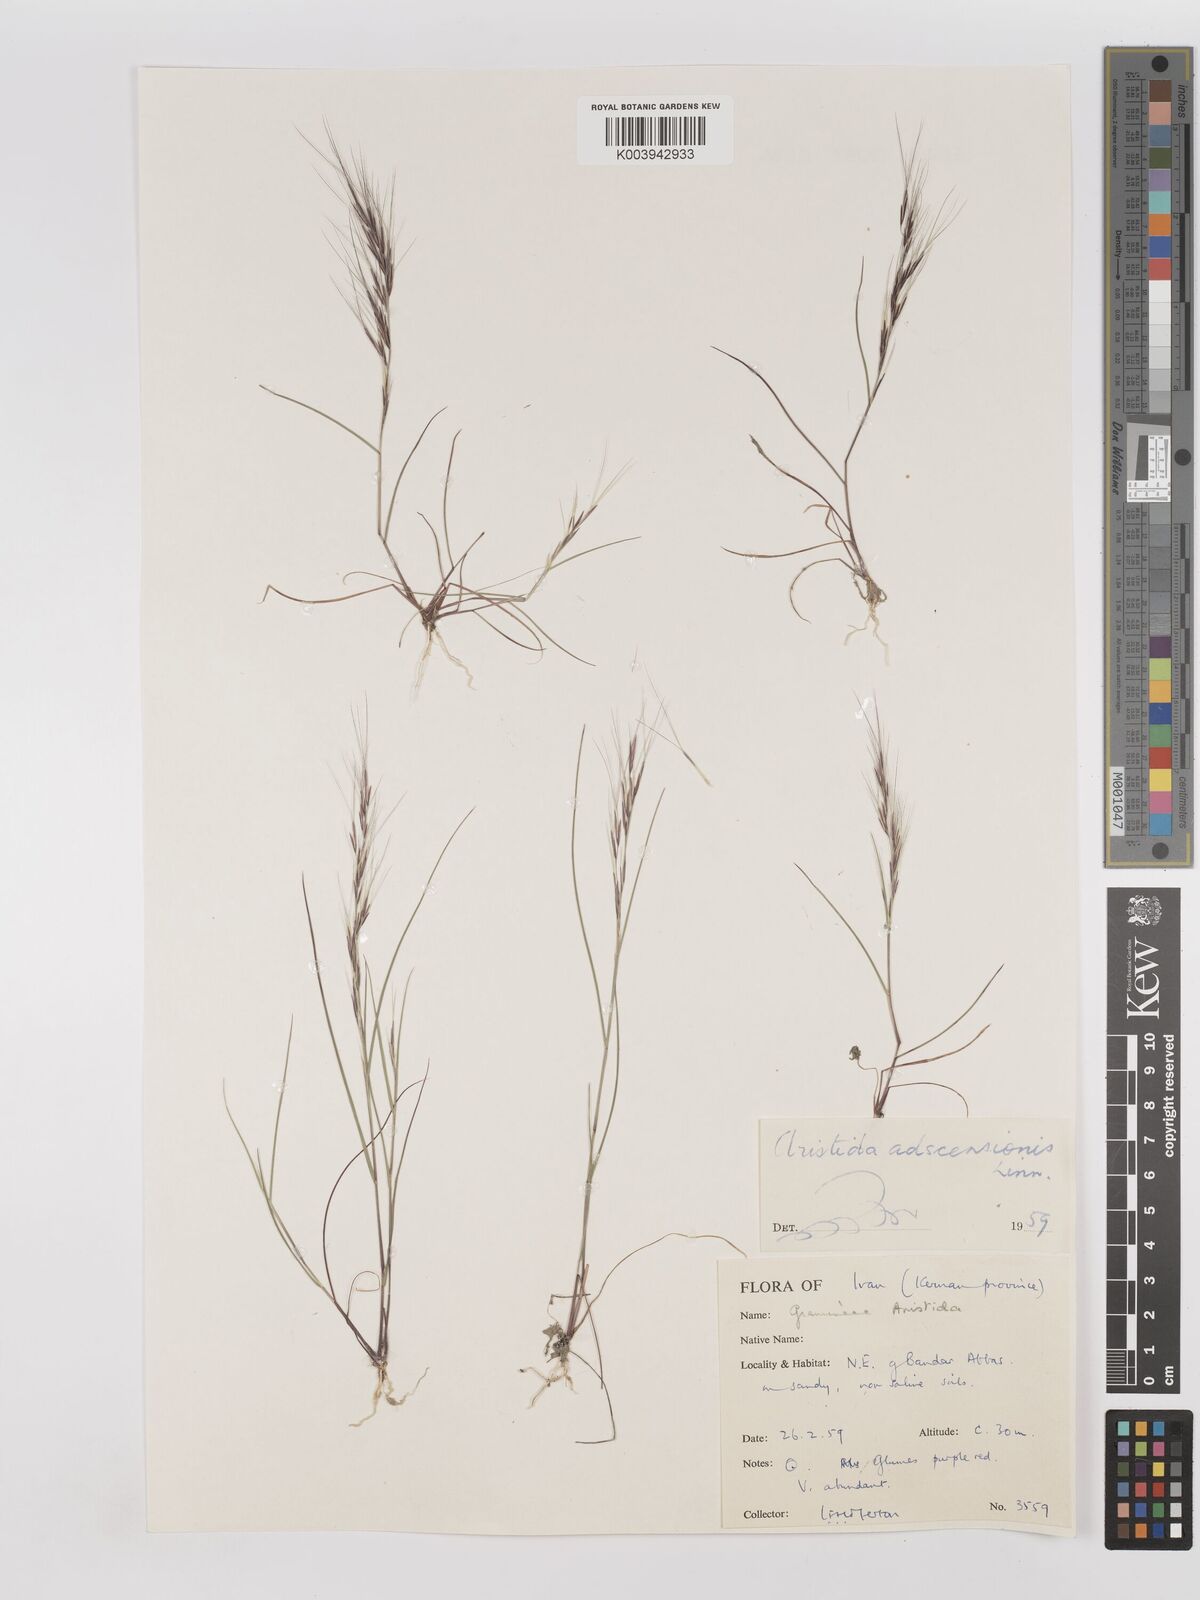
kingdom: Plantae
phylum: Tracheophyta
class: Liliopsida
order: Poales
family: Poaceae
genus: Aristida
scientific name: Aristida adscensionis
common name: Sixweeks threeawn
